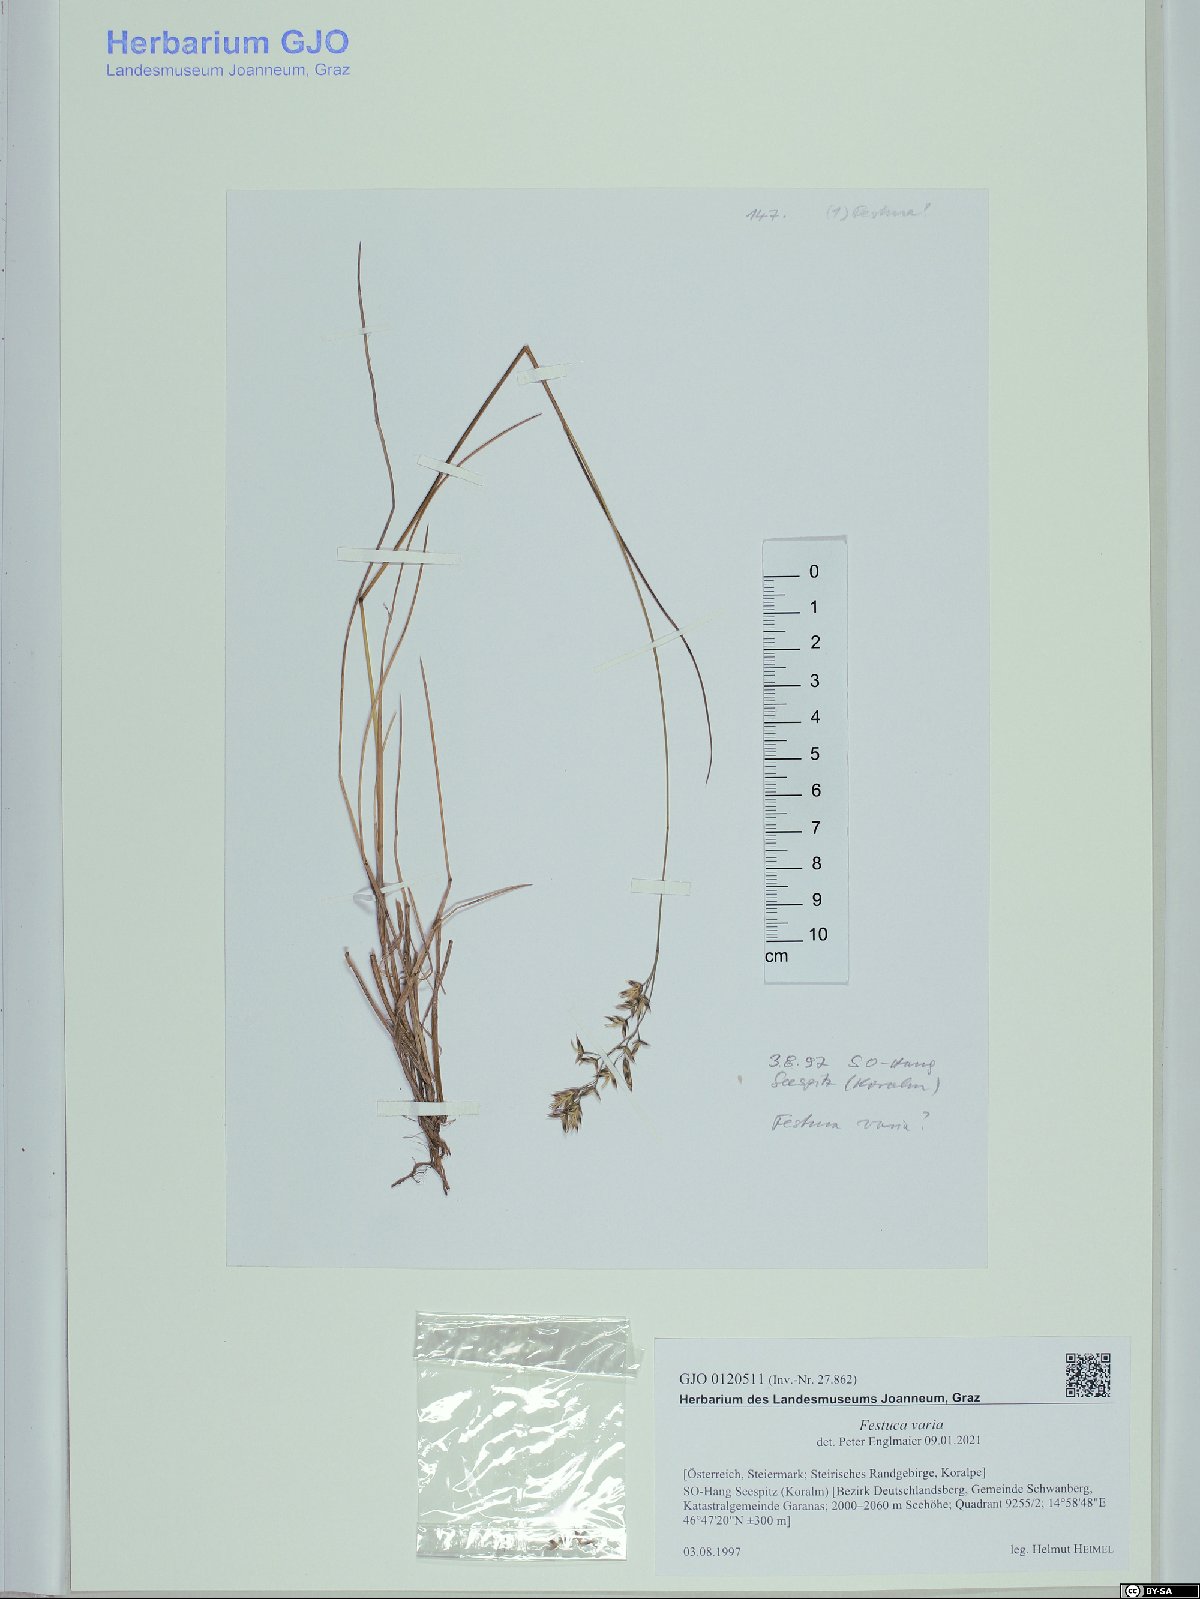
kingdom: Plantae
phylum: Tracheophyta
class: Liliopsida
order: Poales
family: Poaceae
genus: Festuca
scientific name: Festuca varia
